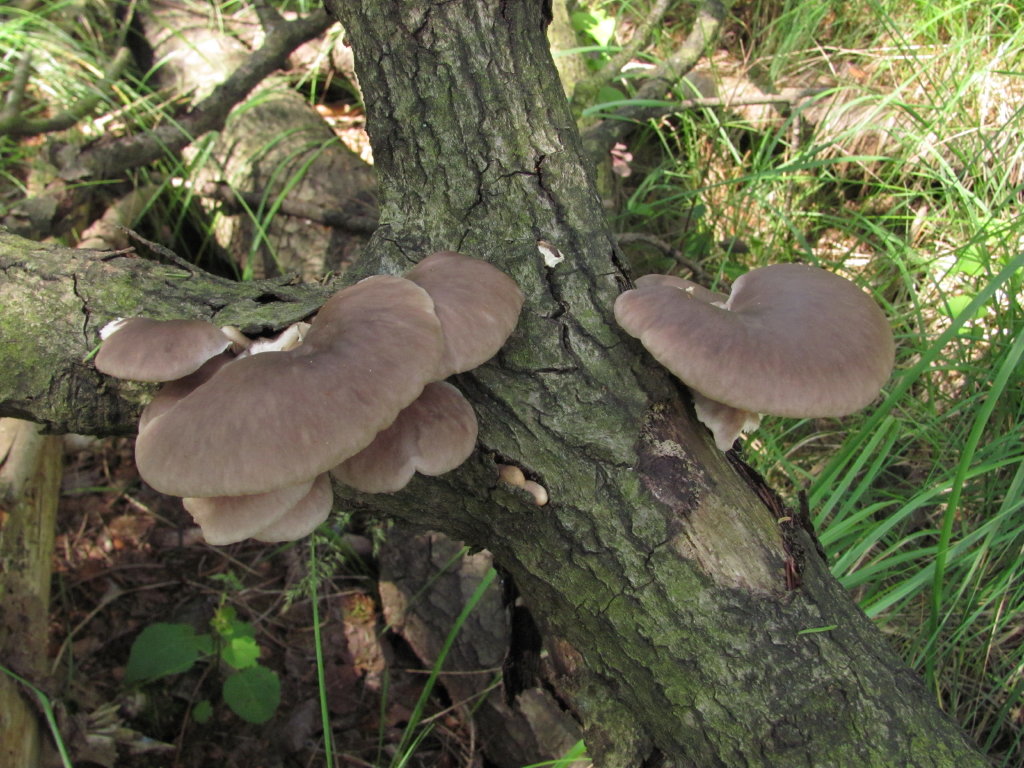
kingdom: Fungi
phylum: Basidiomycota
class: Agaricomycetes
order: Agaricales
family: Pleurotaceae
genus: Pleurotus
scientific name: Pleurotus ostreatus
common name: Oyster mushroom
